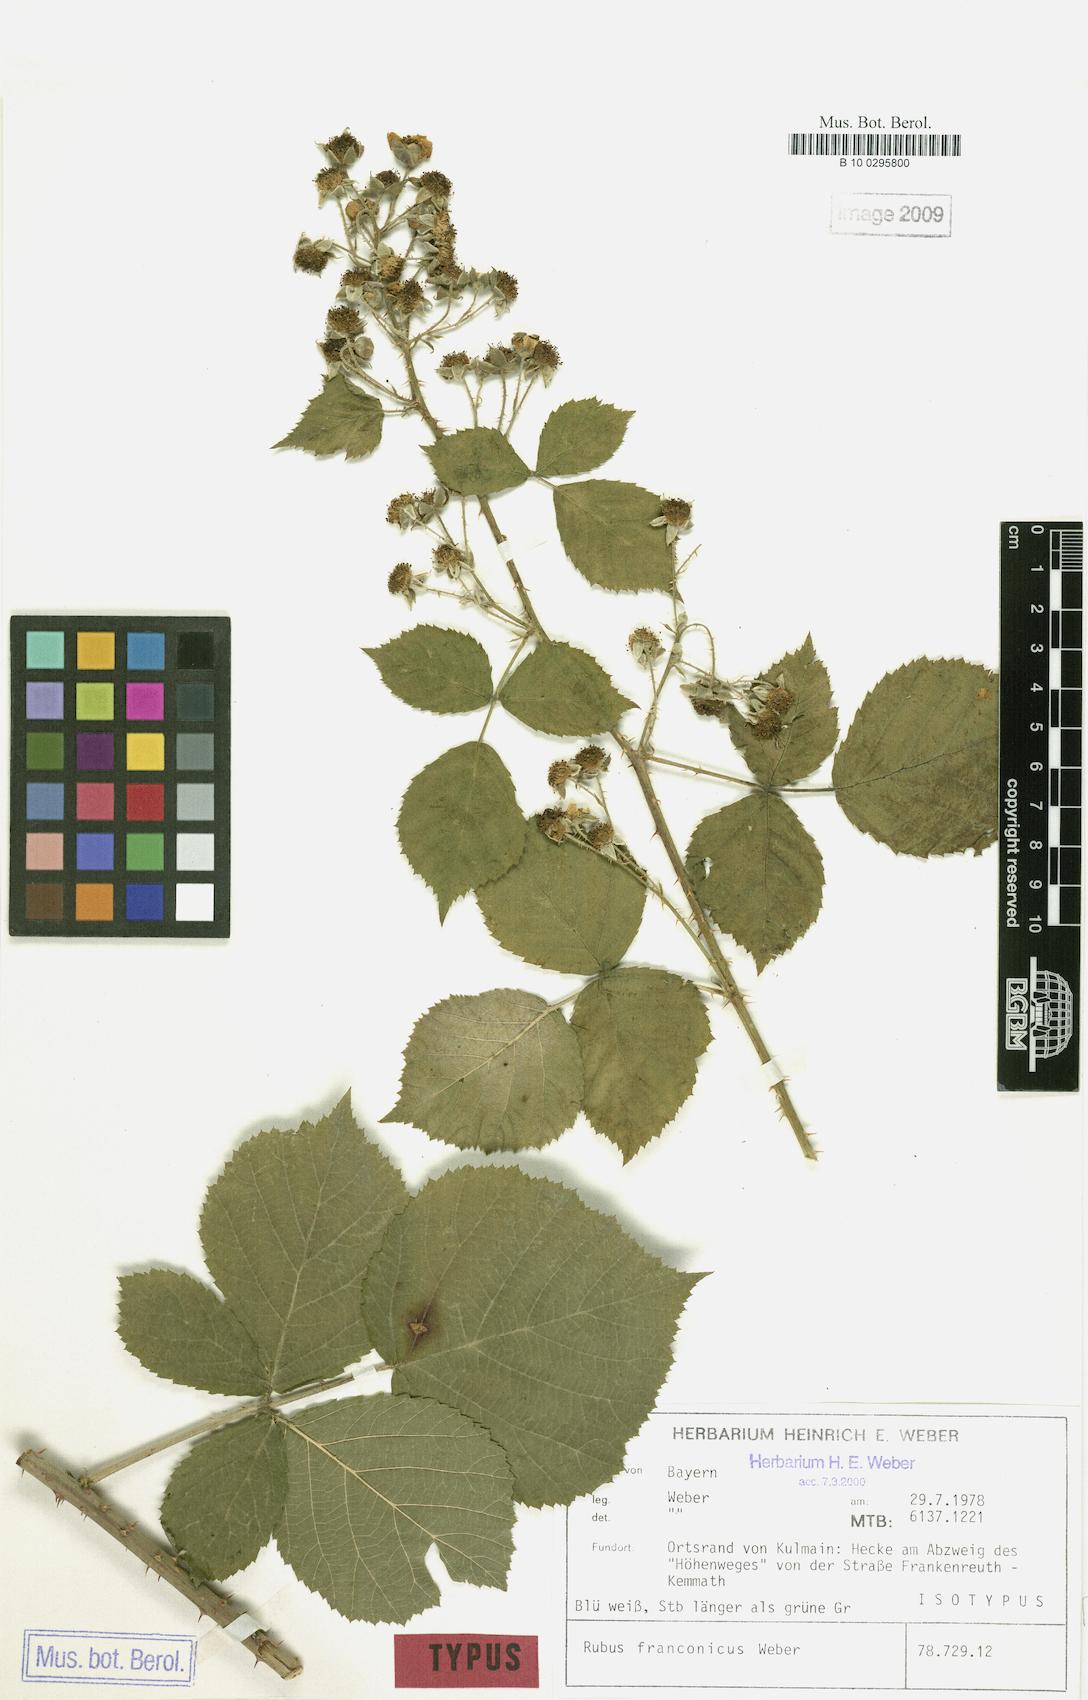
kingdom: Plantae
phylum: Tracheophyta
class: Magnoliopsida
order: Rosales
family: Rosaceae
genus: Rubus
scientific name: Rubus franconicus
